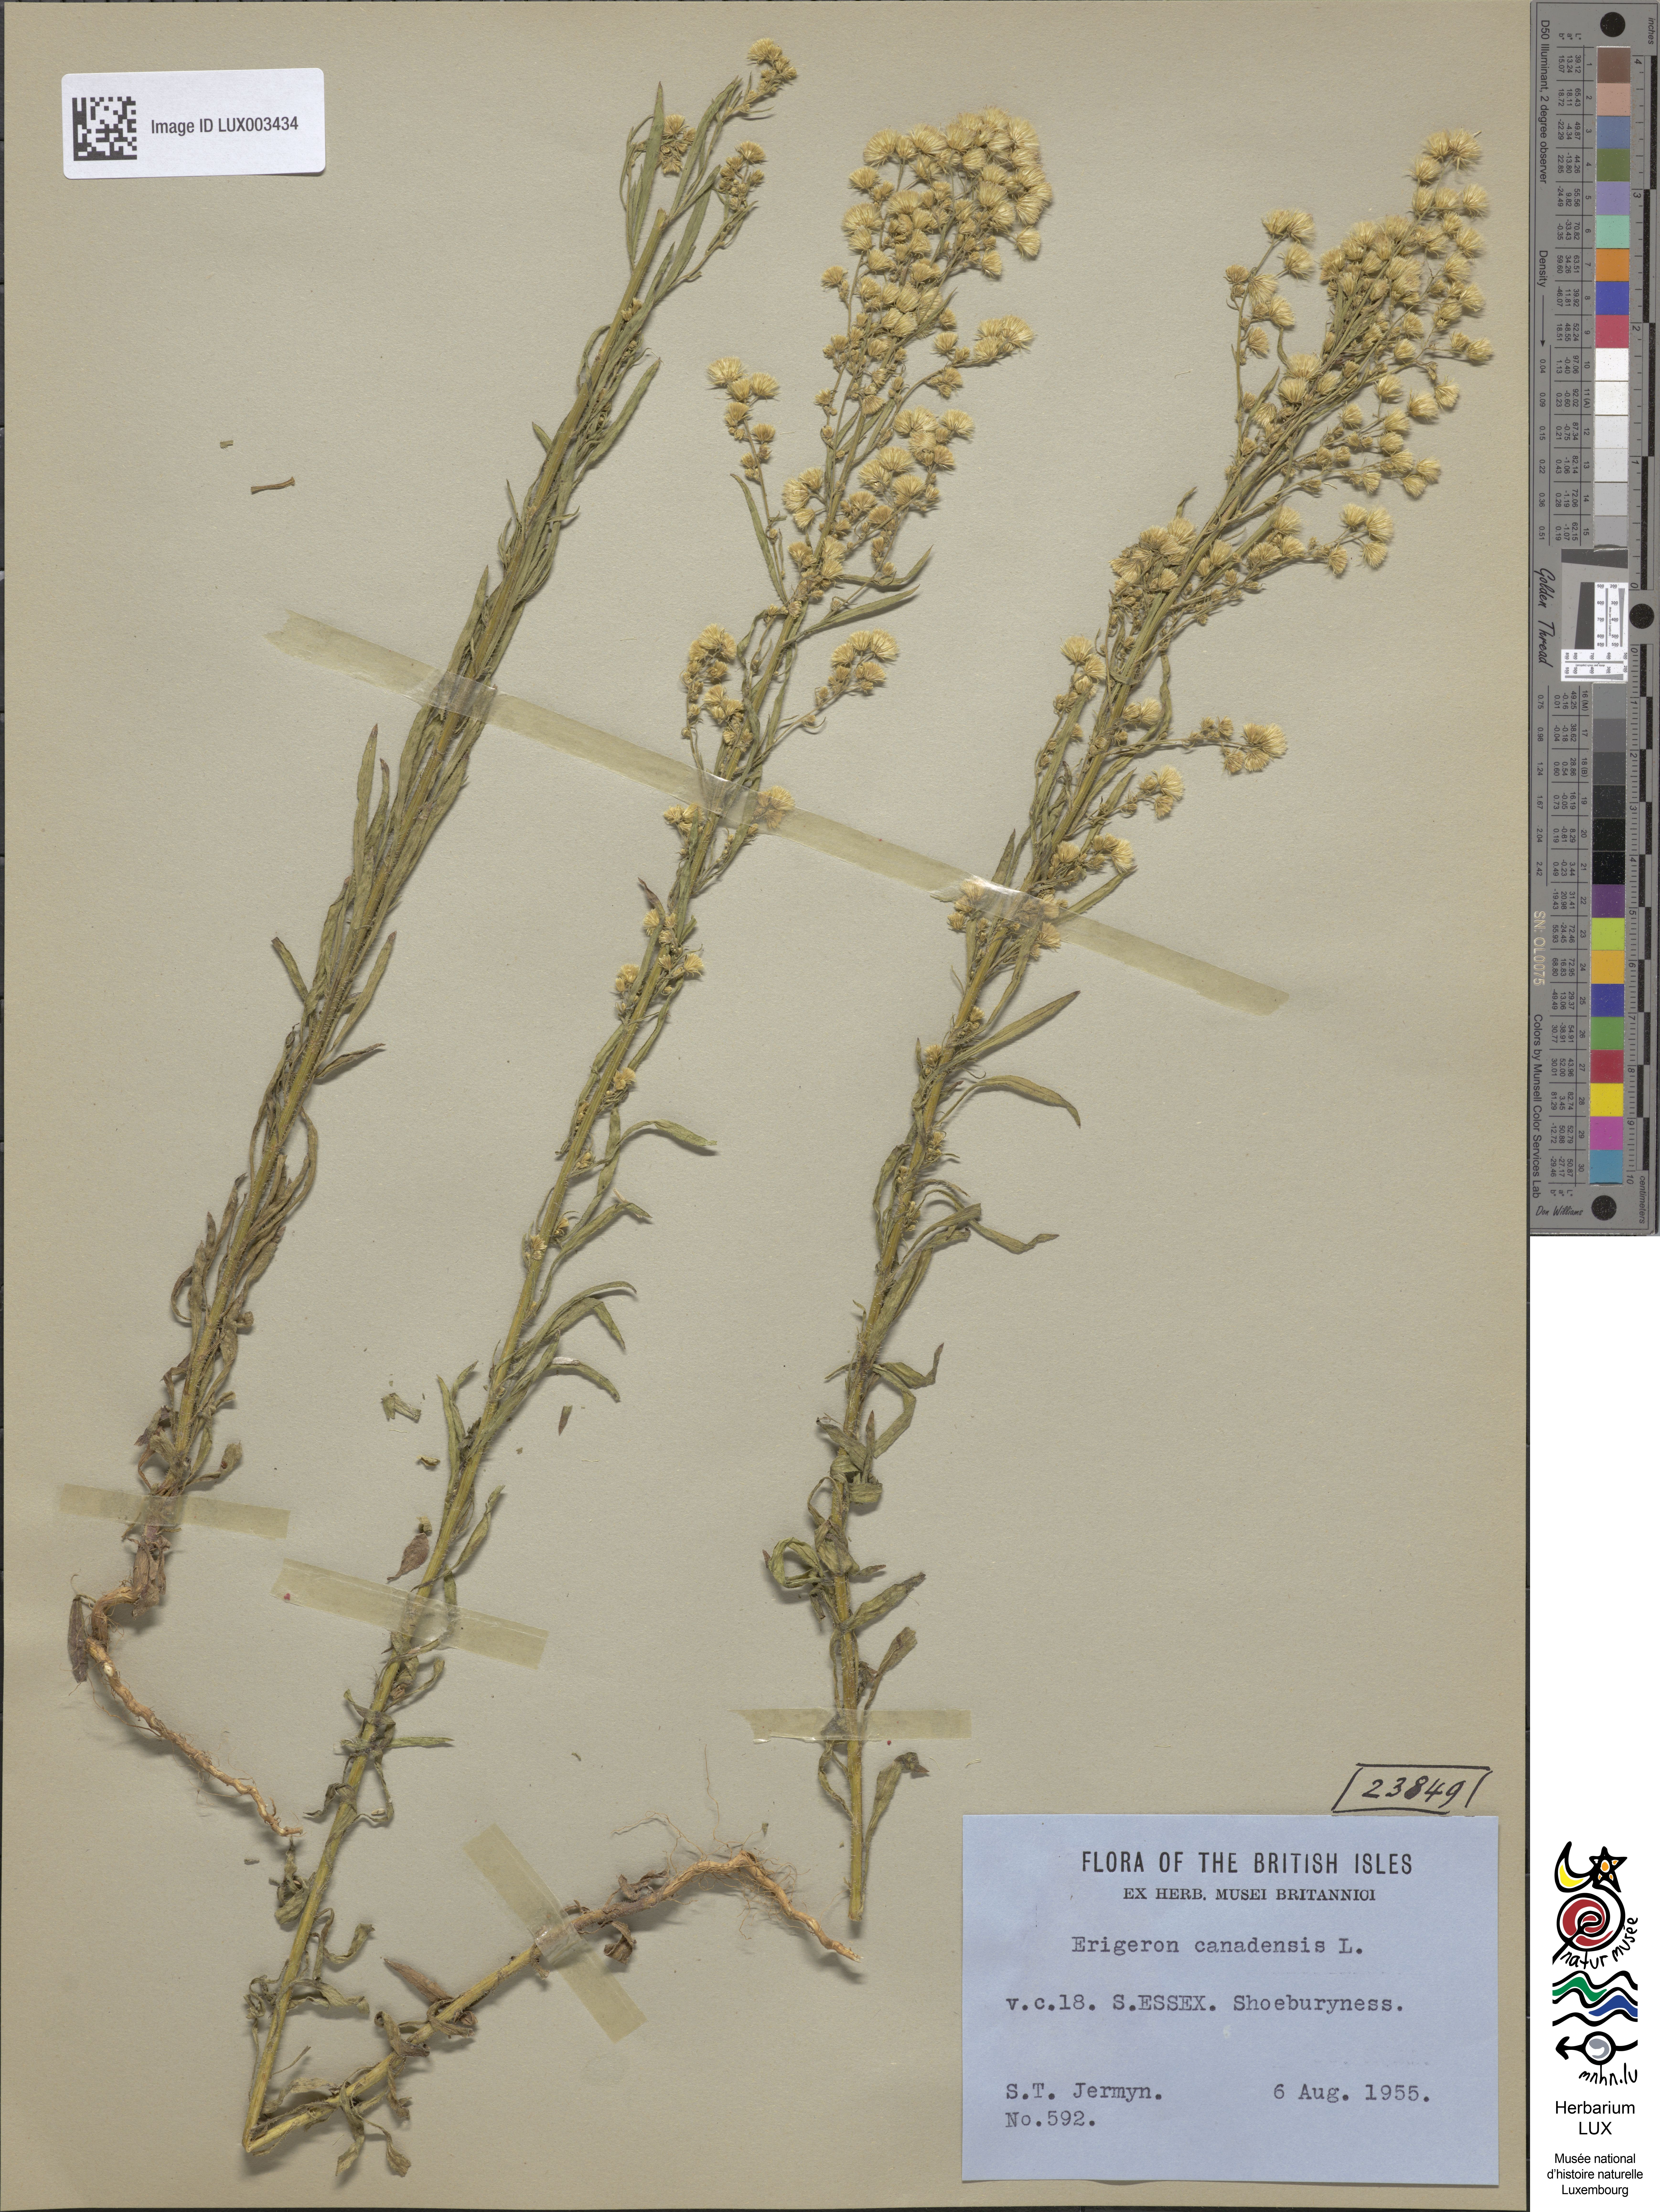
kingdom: Plantae
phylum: Tracheophyta
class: Magnoliopsida
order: Asterales
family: Asteraceae
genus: Erigeron
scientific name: Erigeron canadensis
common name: Canadian fleabane
